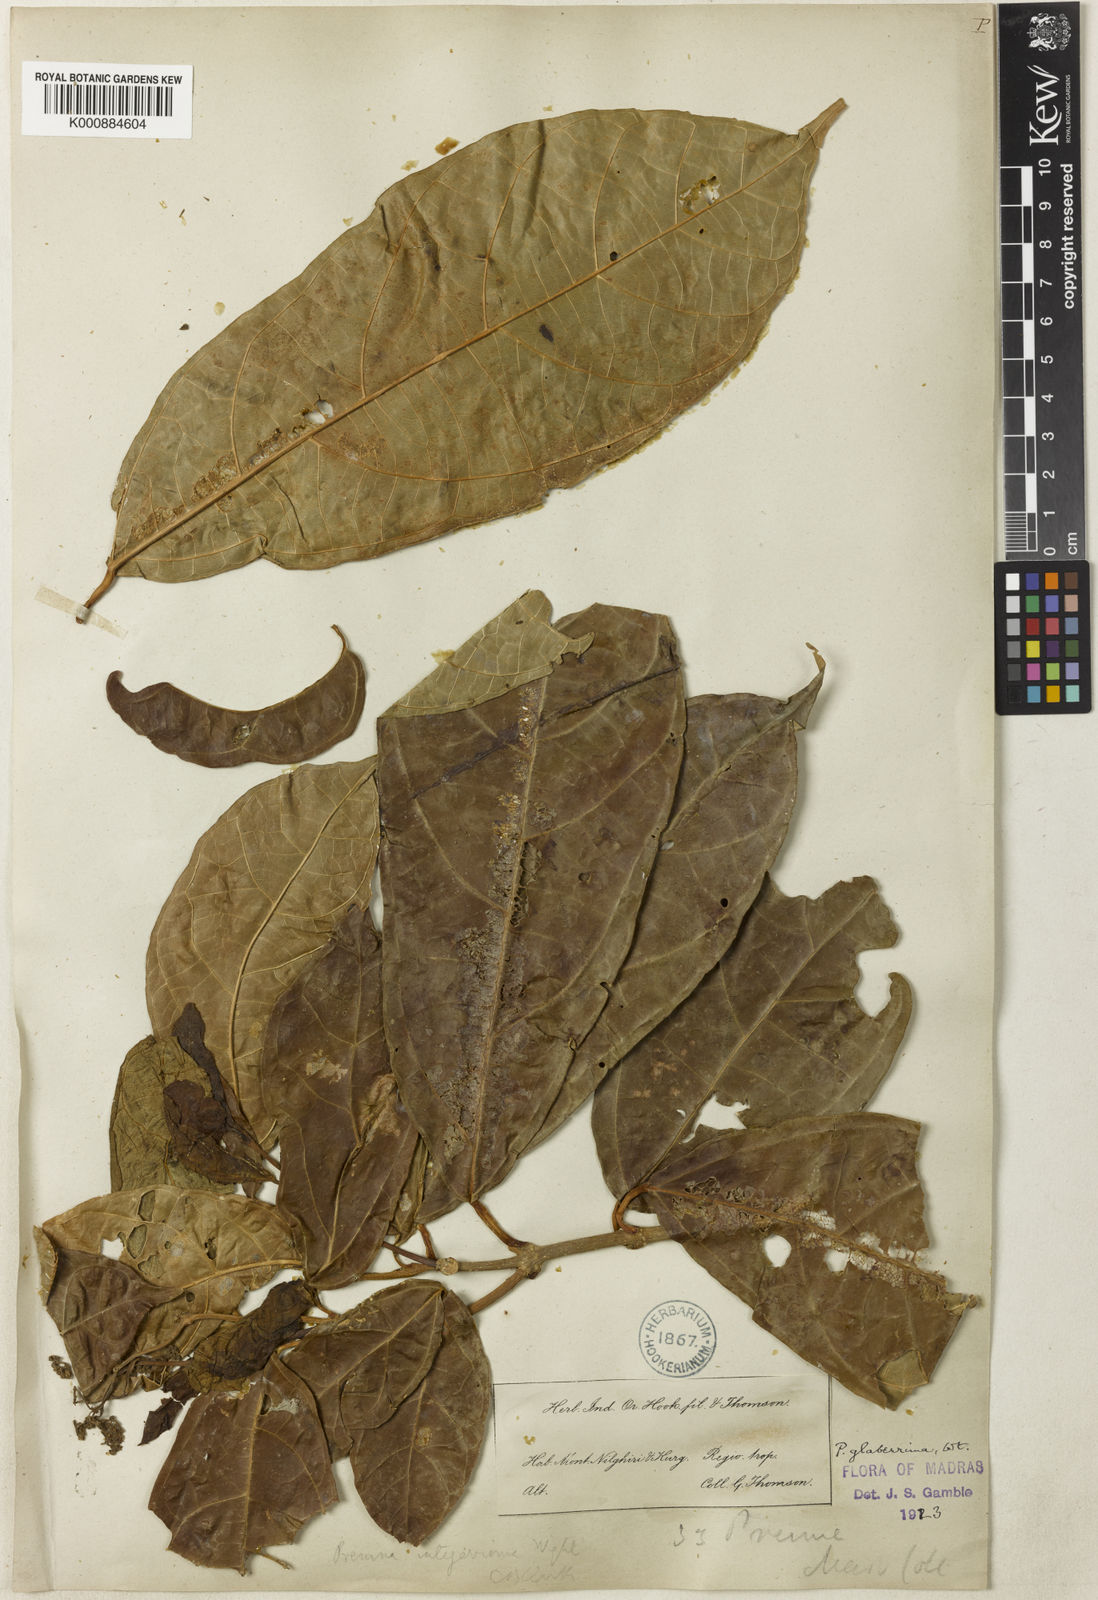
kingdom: Plantae
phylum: Tracheophyta
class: Magnoliopsida
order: Lamiales
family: Lamiaceae
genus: Premna
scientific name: Premna glaberrima
